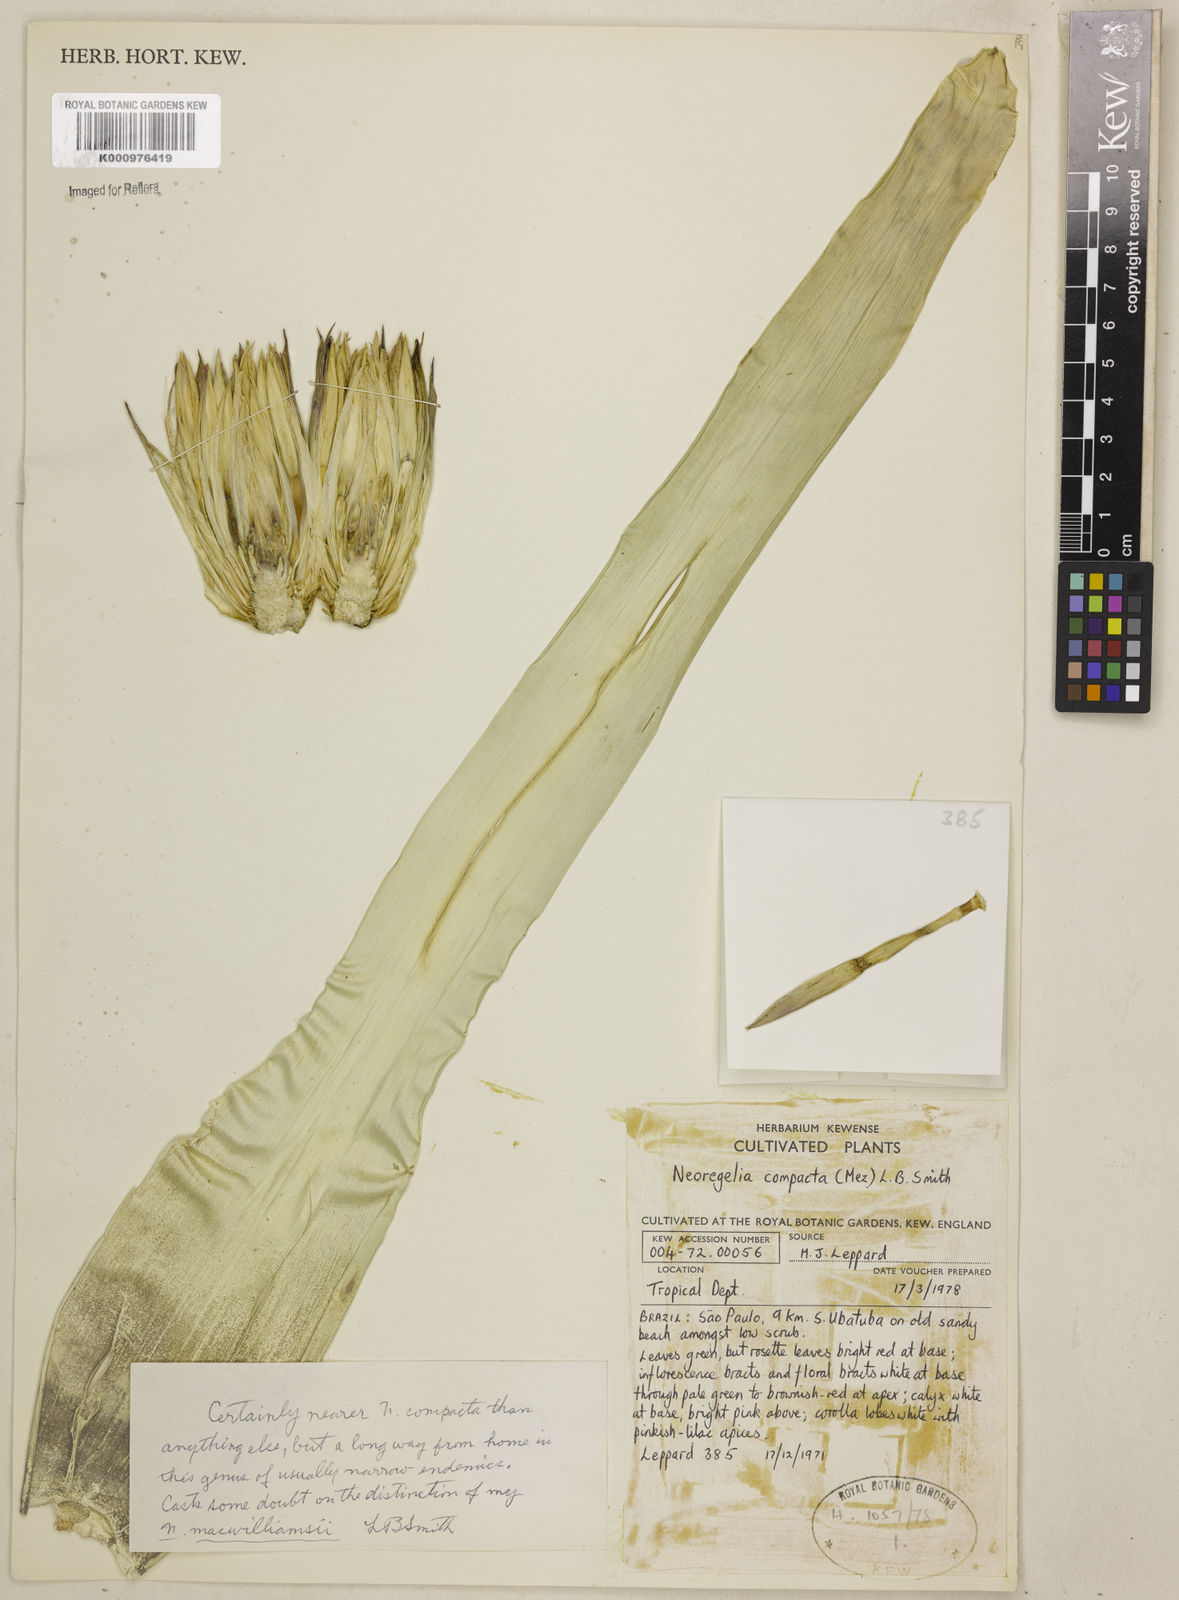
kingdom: Plantae
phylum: Tracheophyta
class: Liliopsida
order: Poales
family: Bromeliaceae
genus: Neoregelia
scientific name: Neoregelia compacta
